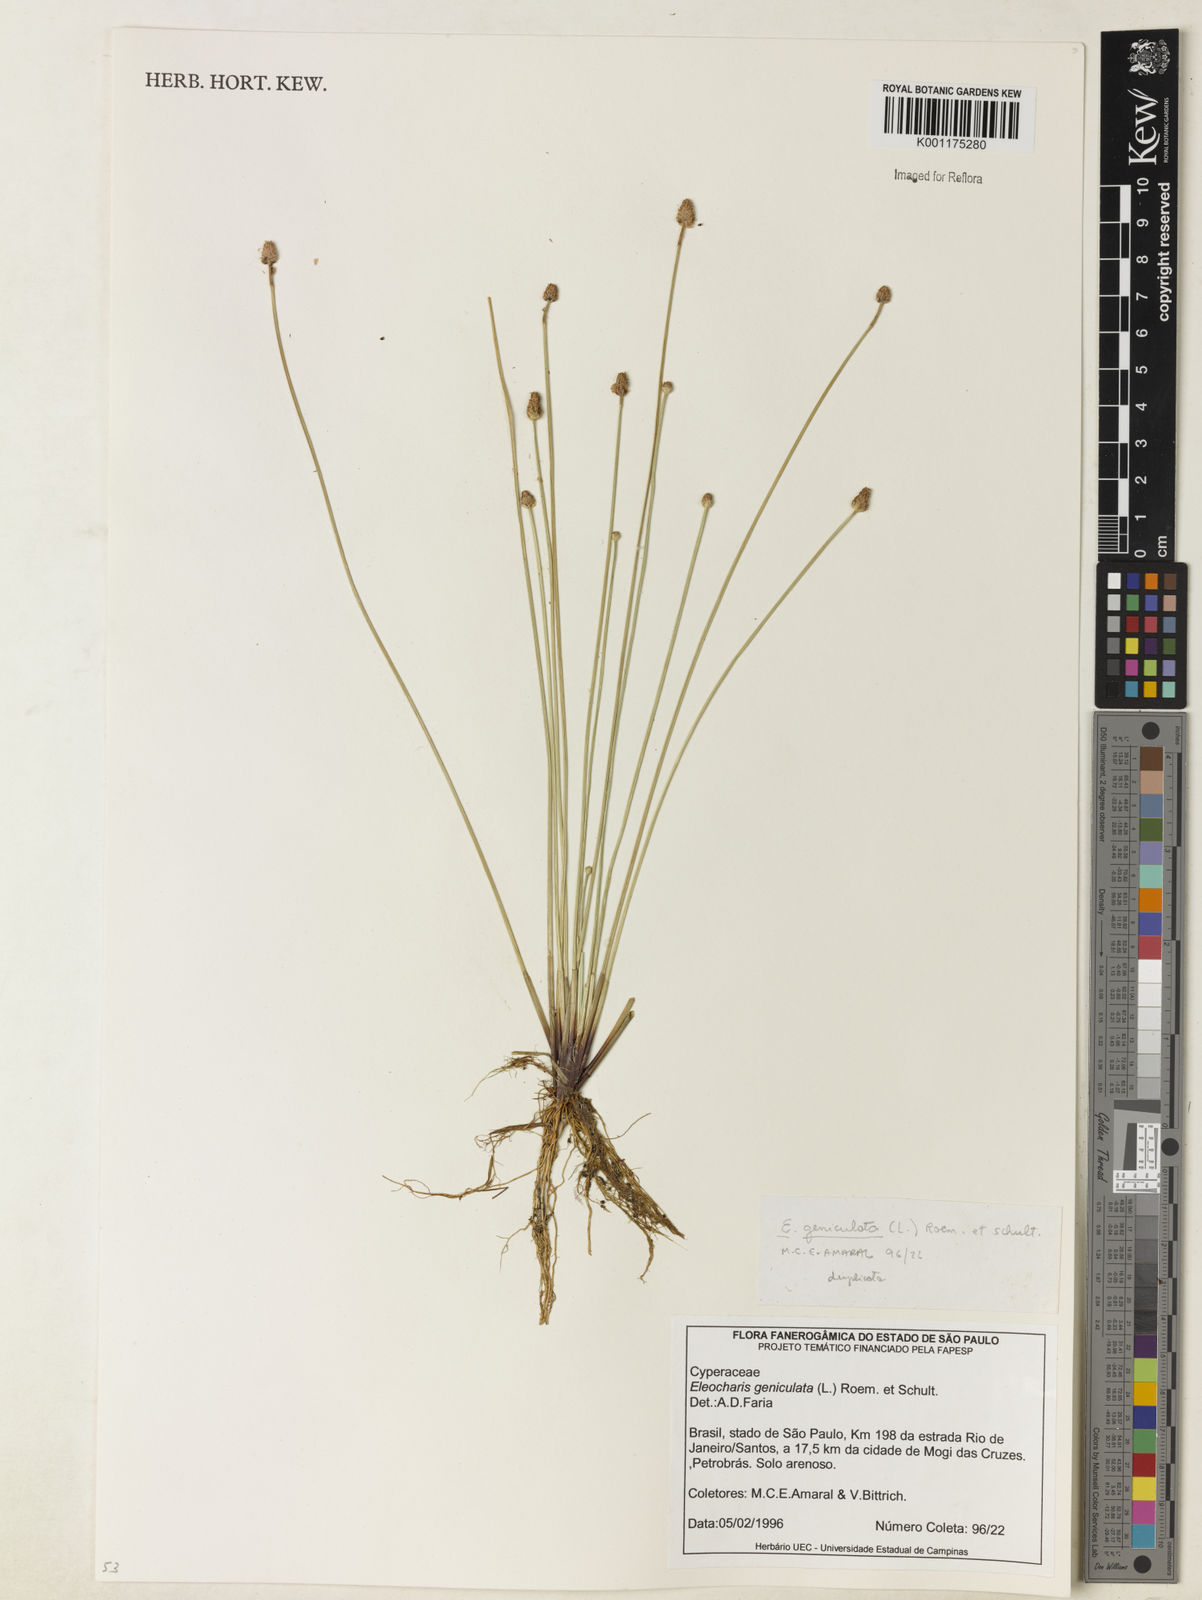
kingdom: Plantae
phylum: Tracheophyta
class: Liliopsida
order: Poales
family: Cyperaceae
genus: Eleocharis
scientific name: Eleocharis geniculata
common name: Canada spikesedge
